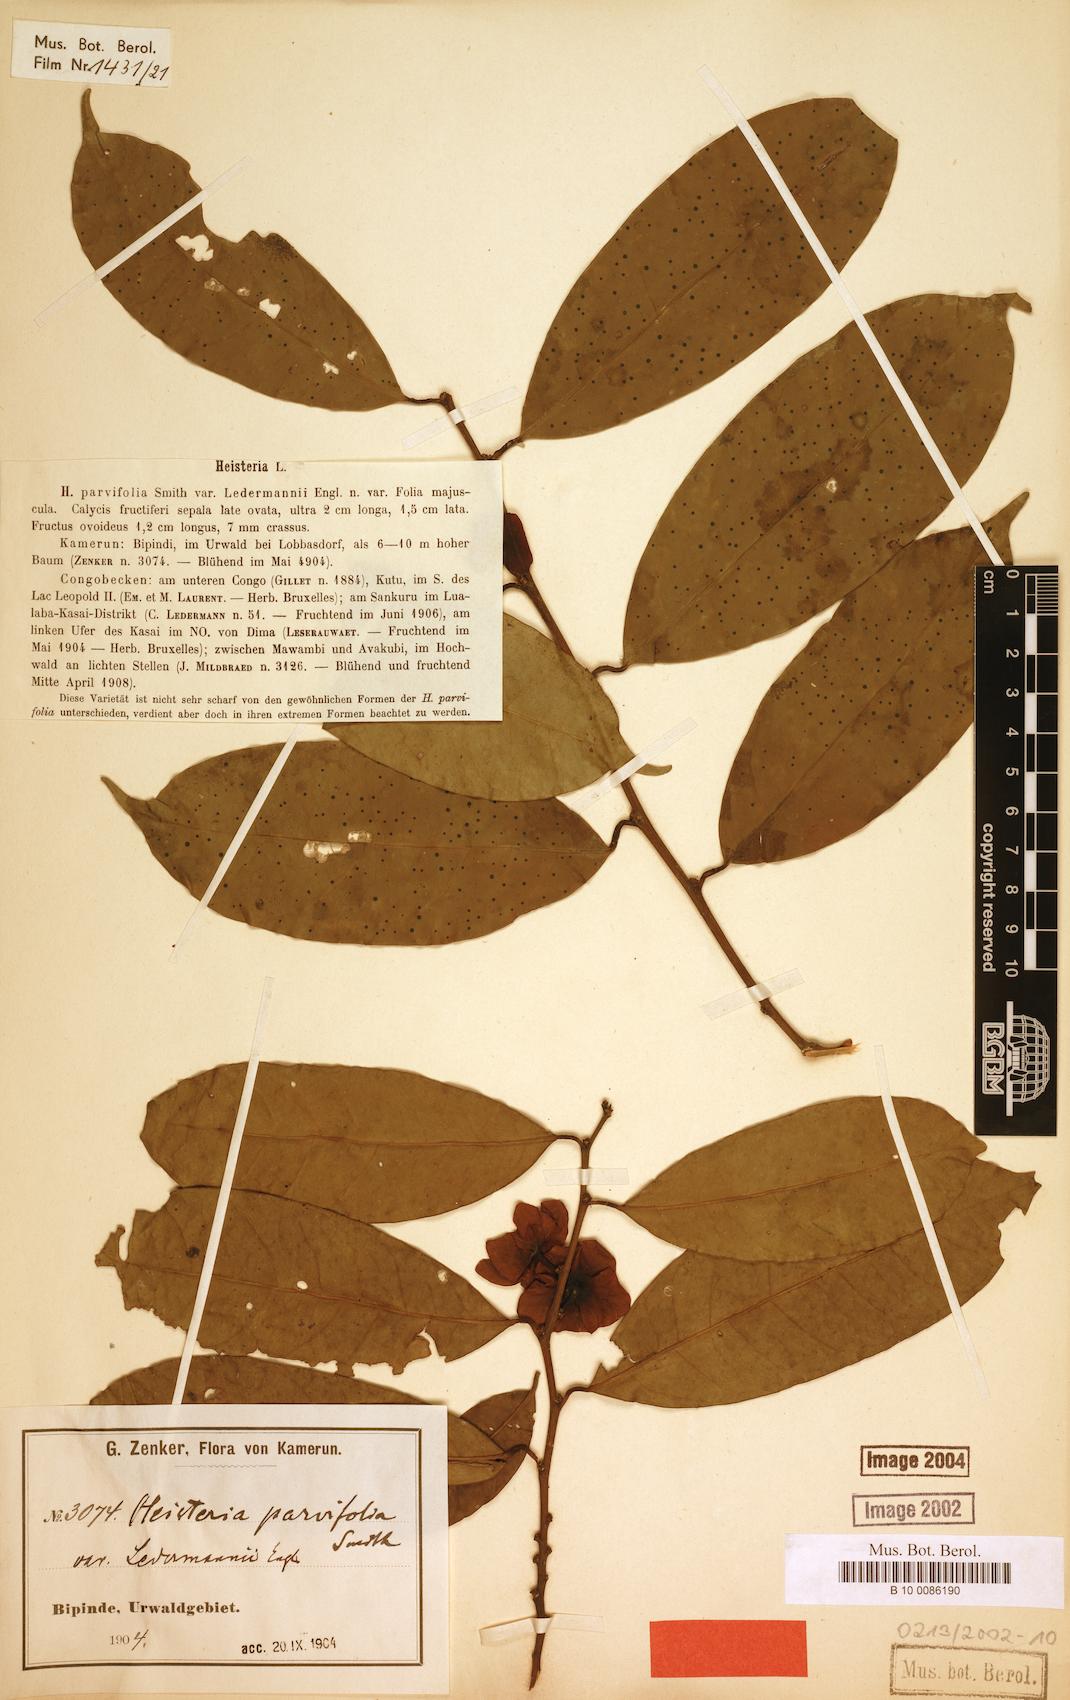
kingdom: Plantae
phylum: Tracheophyta
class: Magnoliopsida
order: Santalales
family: Erythropalaceae
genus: Heisteria
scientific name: Heisteria parvifolia
